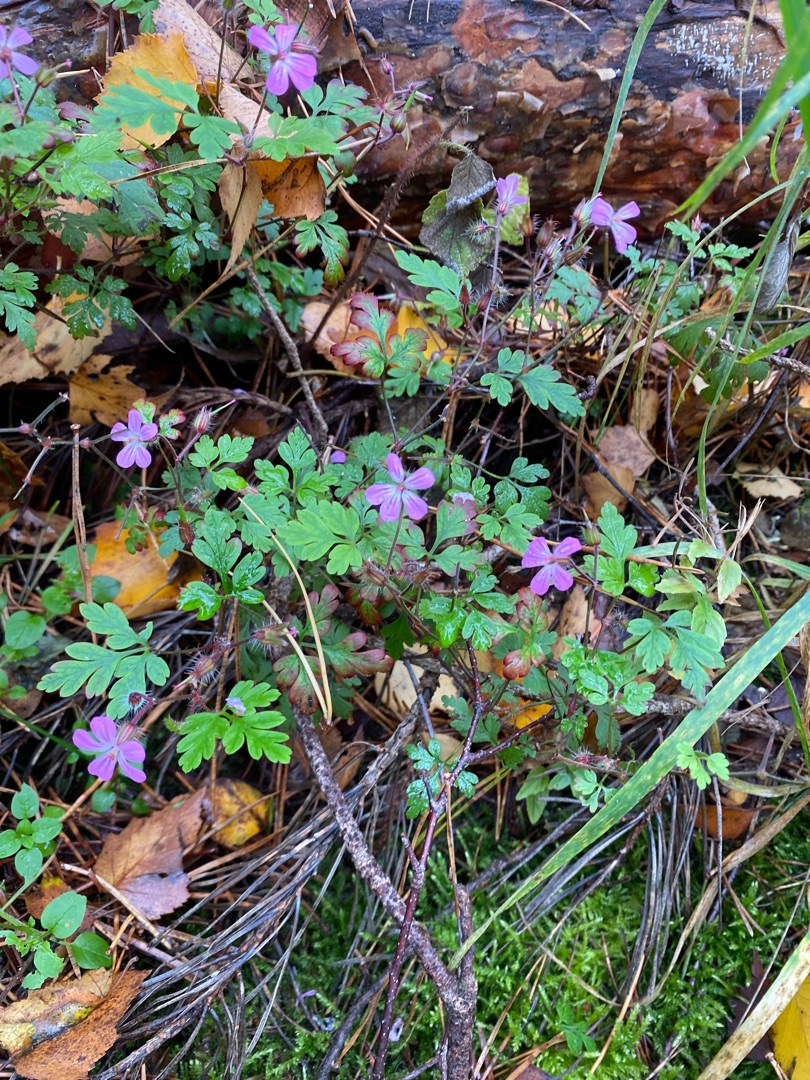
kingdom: Plantae
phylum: Tracheophyta
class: Magnoliopsida
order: Geraniales
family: Geraniaceae
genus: Geranium
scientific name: Geranium robertianum
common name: Stinkende storkenæb
